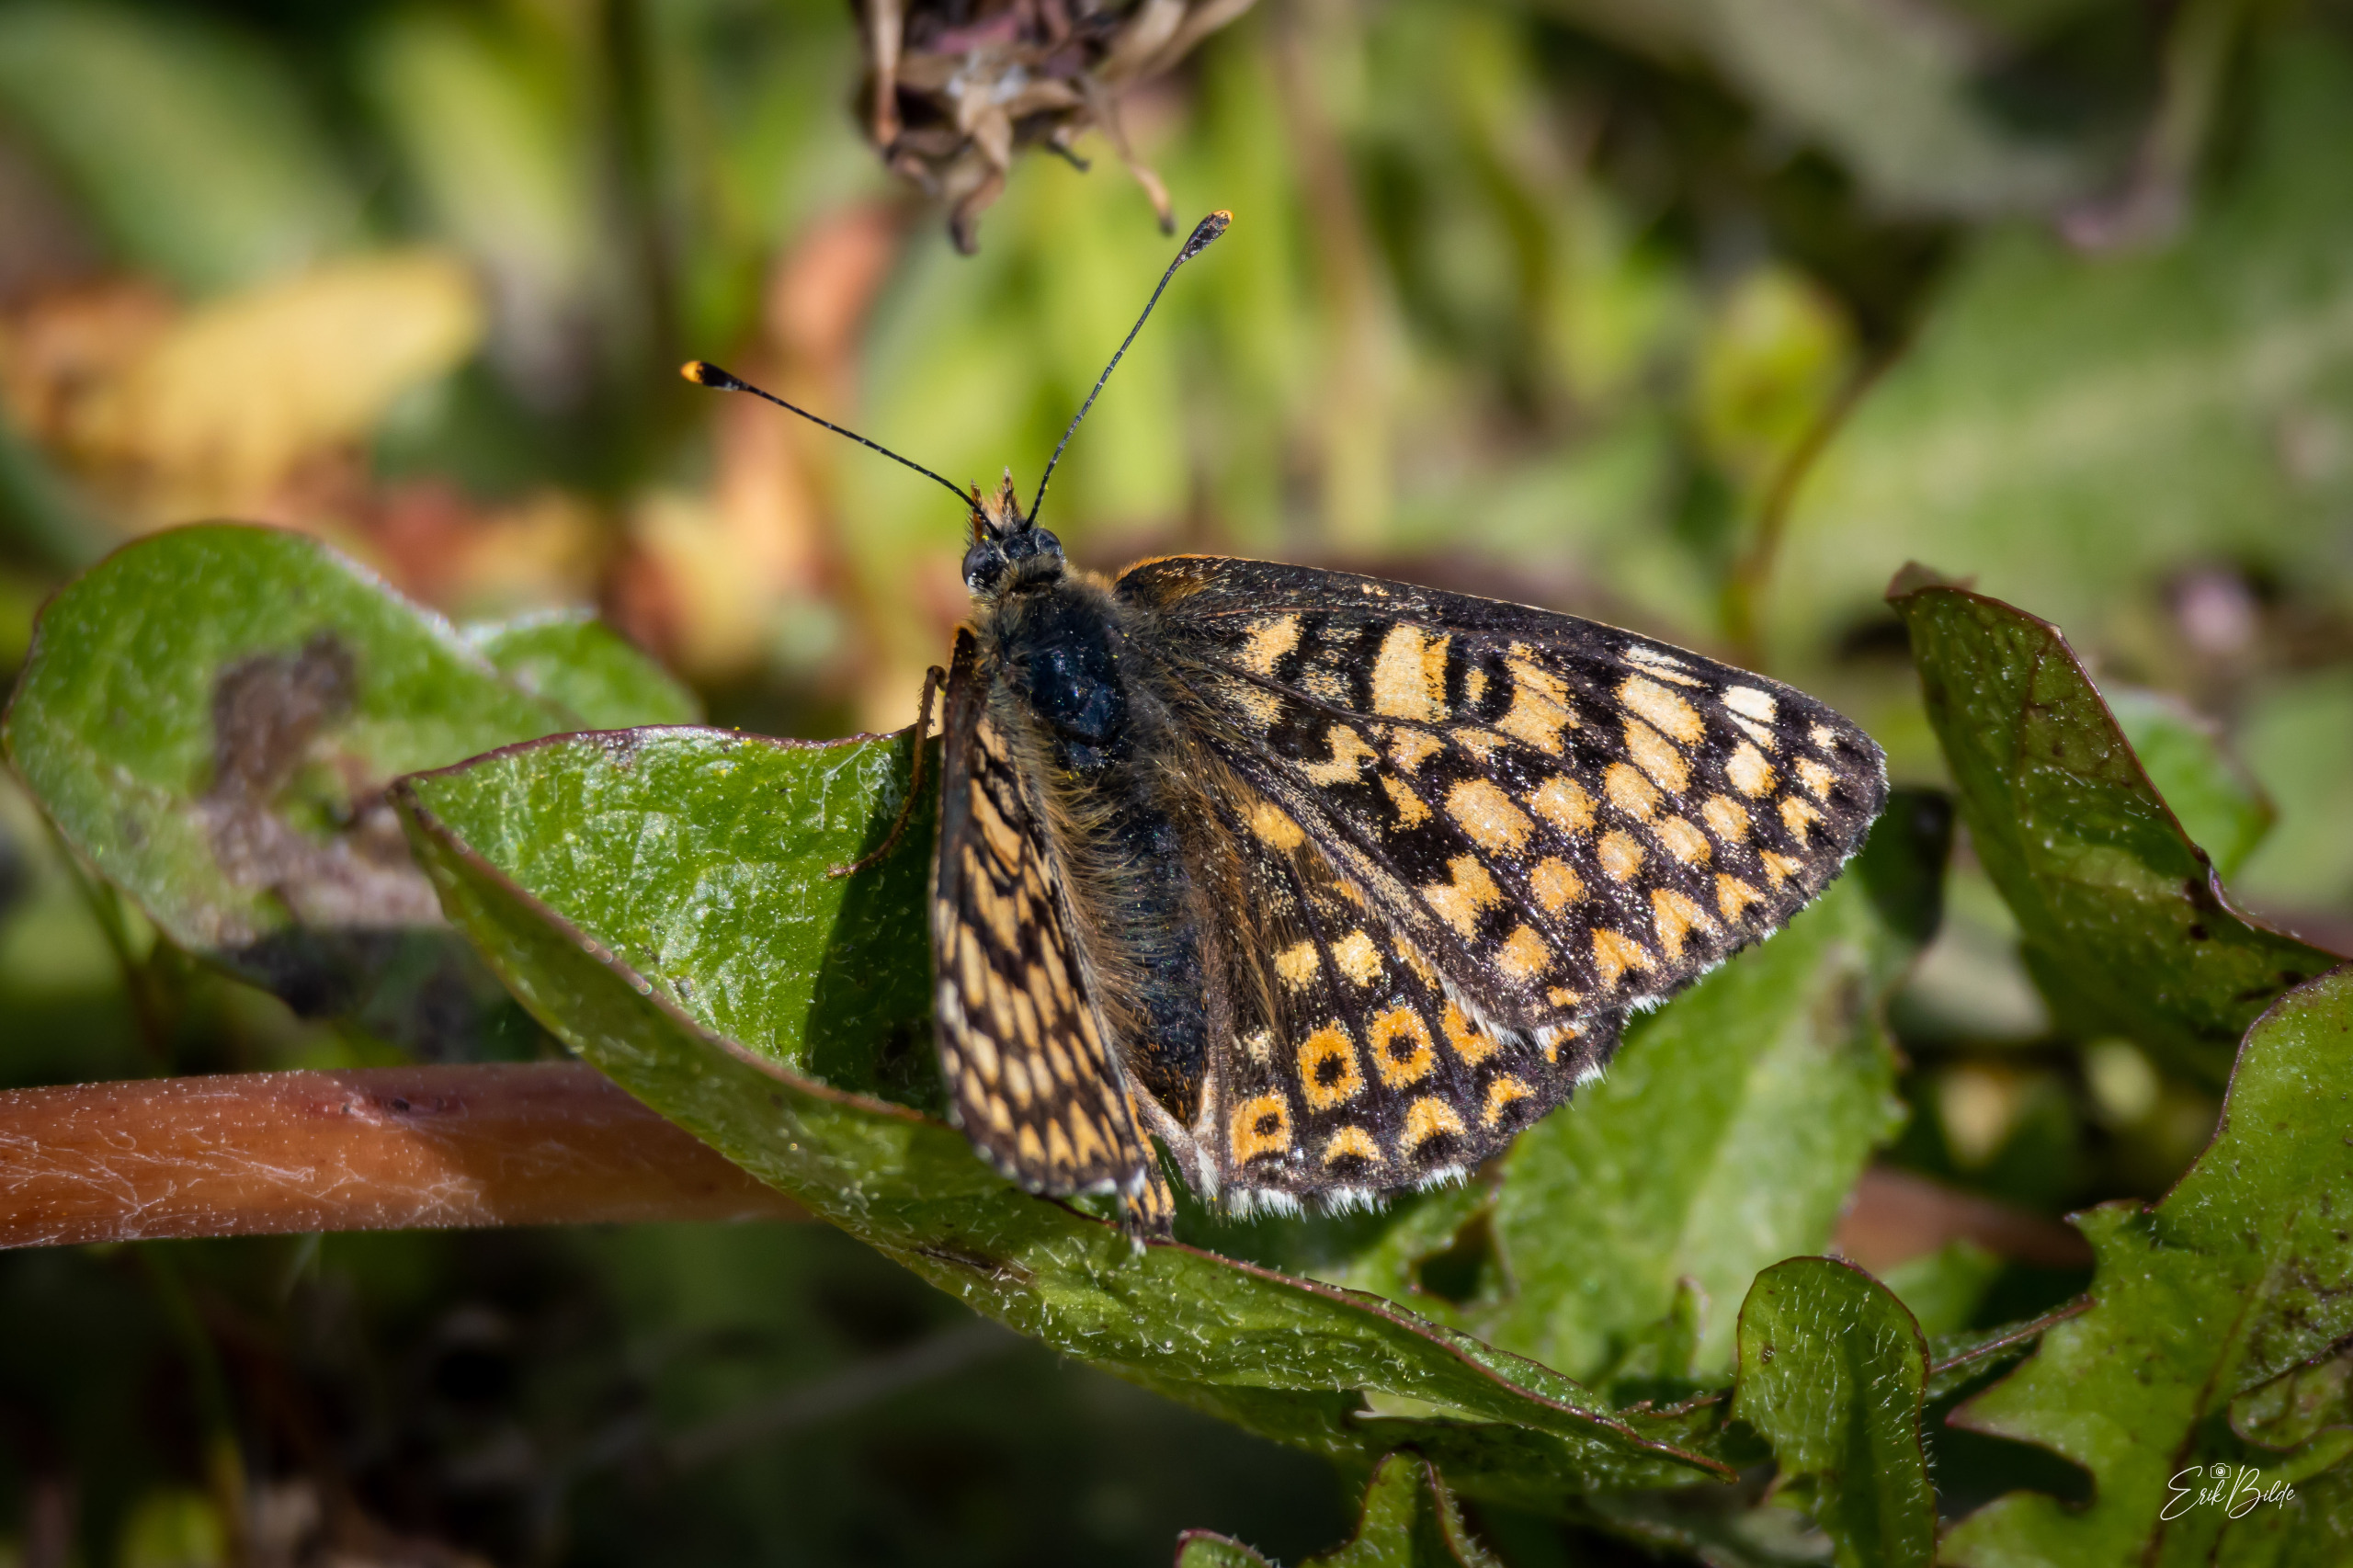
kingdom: Animalia
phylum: Arthropoda
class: Insecta
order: Lepidoptera
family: Nymphalidae
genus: Melitaea
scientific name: Melitaea cinxia
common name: Okkergul pletvinge
